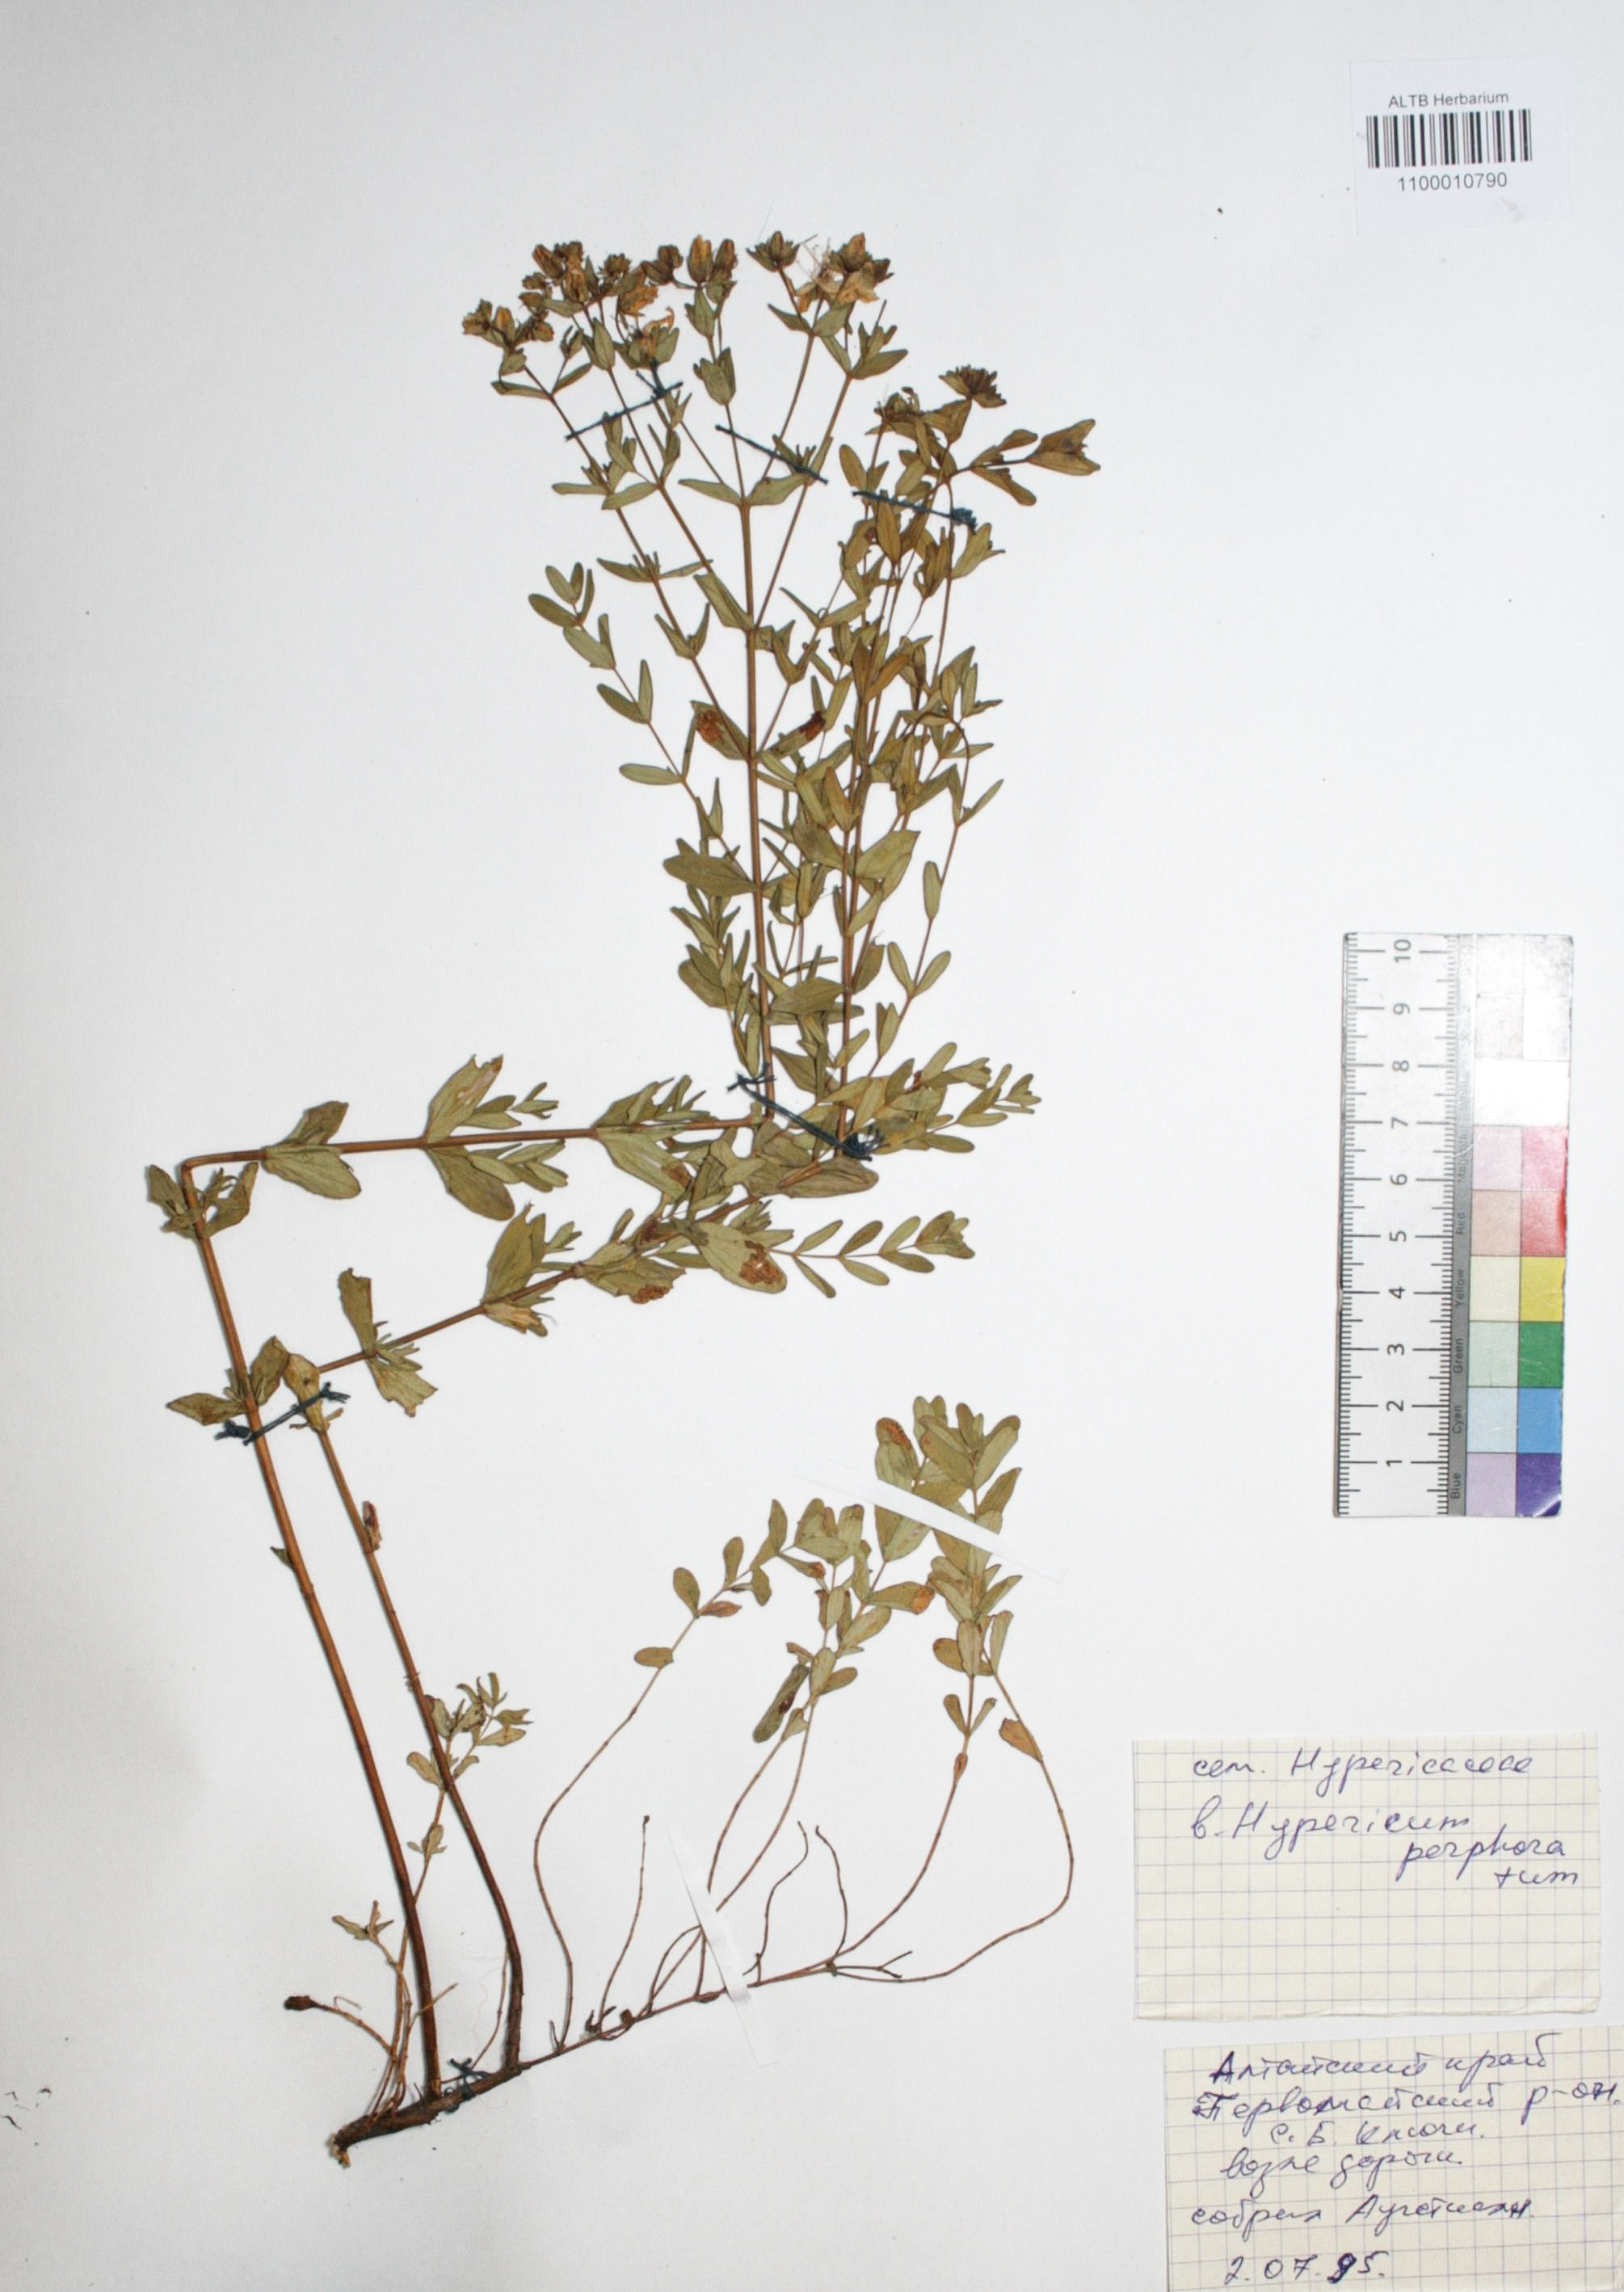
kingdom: Plantae
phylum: Tracheophyta
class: Magnoliopsida
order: Malpighiales
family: Hypericaceae
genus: Hypericum
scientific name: Hypericum perforatum
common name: Common st. johnswort
